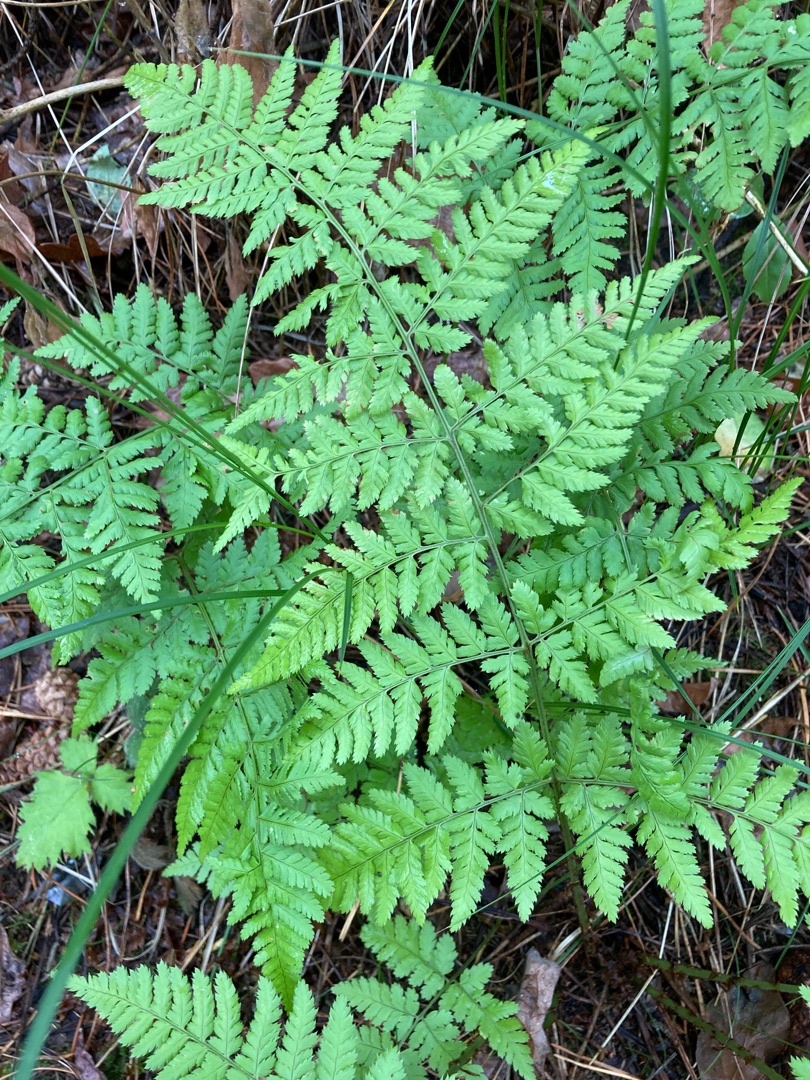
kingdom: Plantae
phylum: Tracheophyta
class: Polypodiopsida
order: Polypodiales
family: Dryopteridaceae
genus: Dryopteris
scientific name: Dryopteris dilatata
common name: Bredbladet mangeløv
